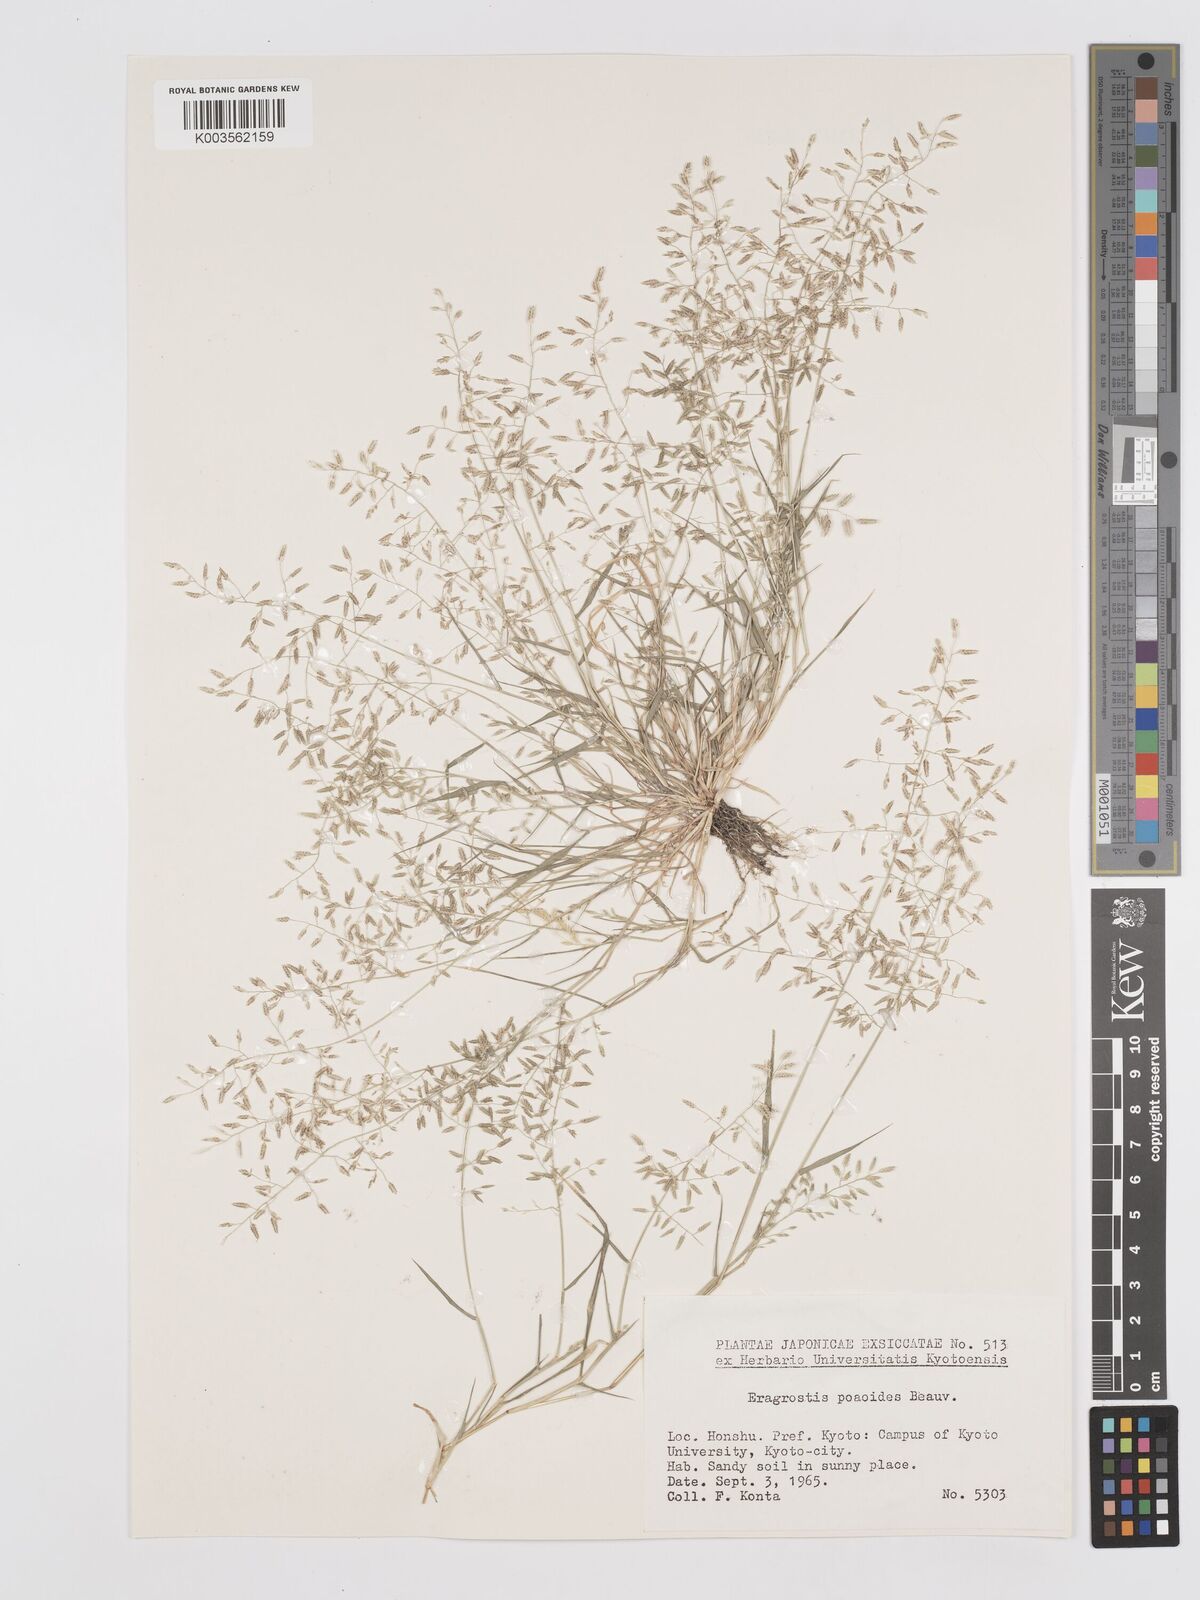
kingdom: Plantae
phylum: Tracheophyta
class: Liliopsida
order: Poales
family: Poaceae
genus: Eragrostis
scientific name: Eragrostis minor
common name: Small love-grass
